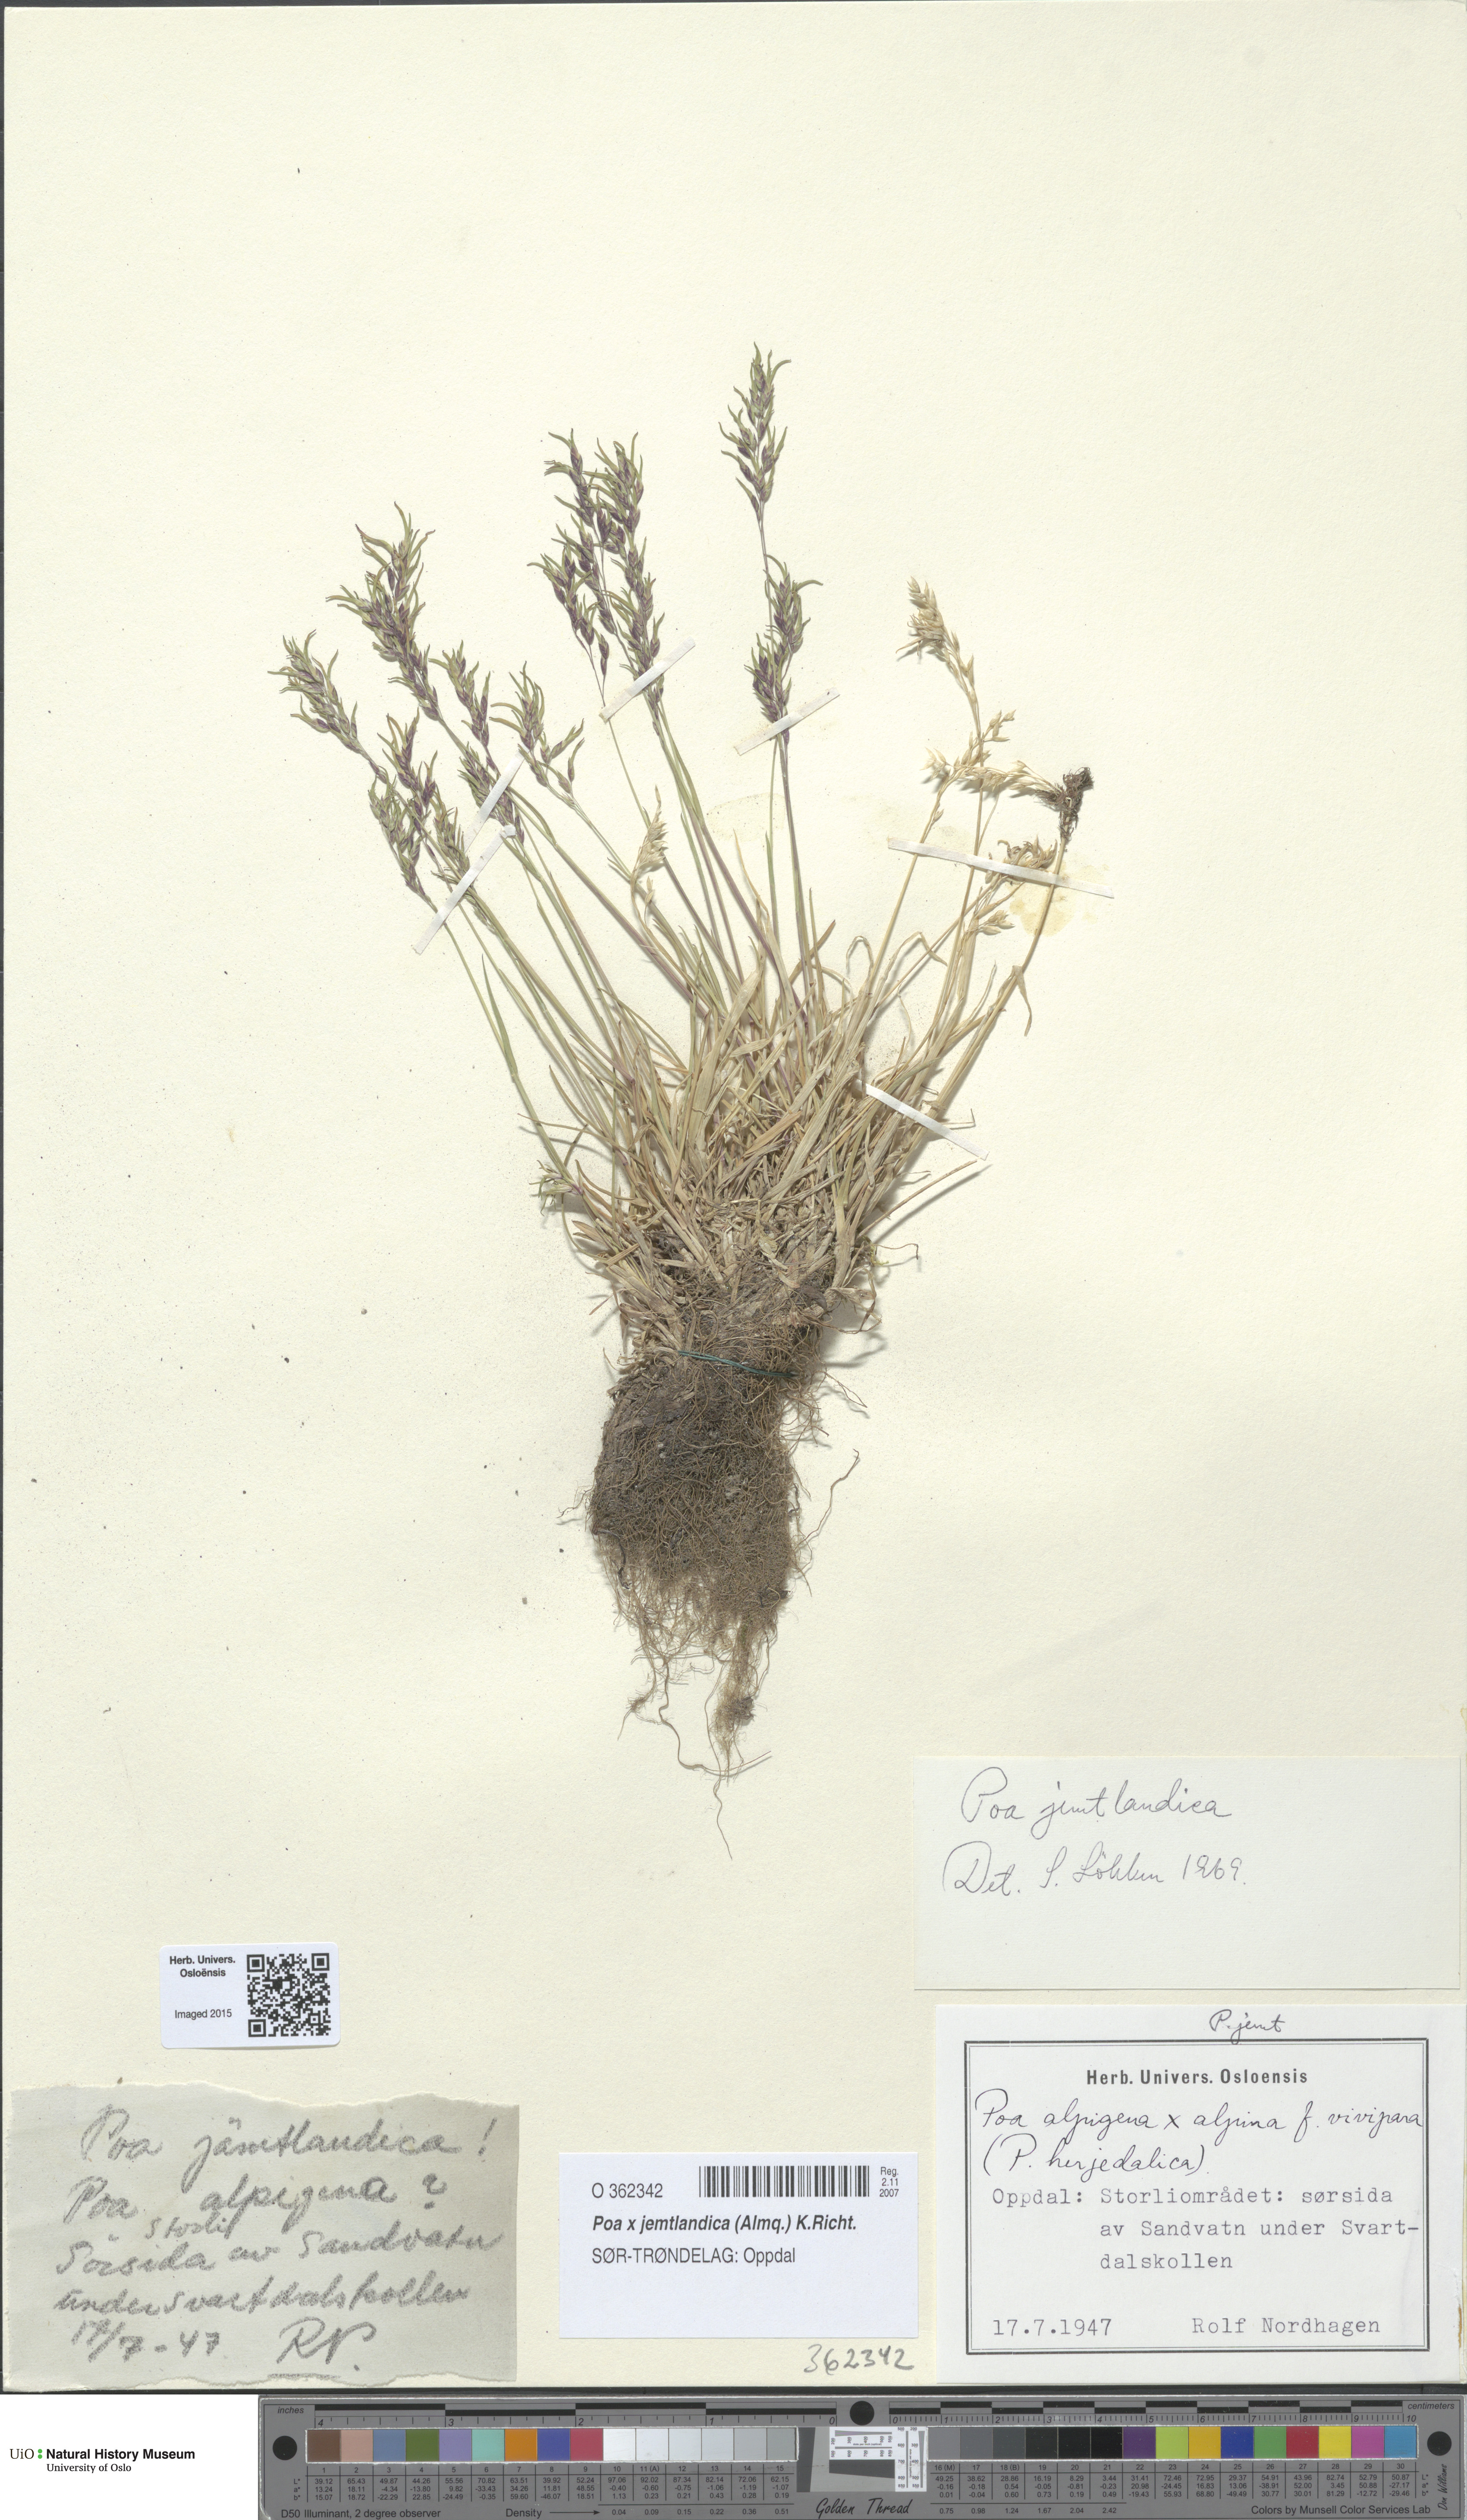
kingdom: Plantae
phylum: Tracheophyta
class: Liliopsida
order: Poales
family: Poaceae
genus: Poa
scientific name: Poa jemtlandica
